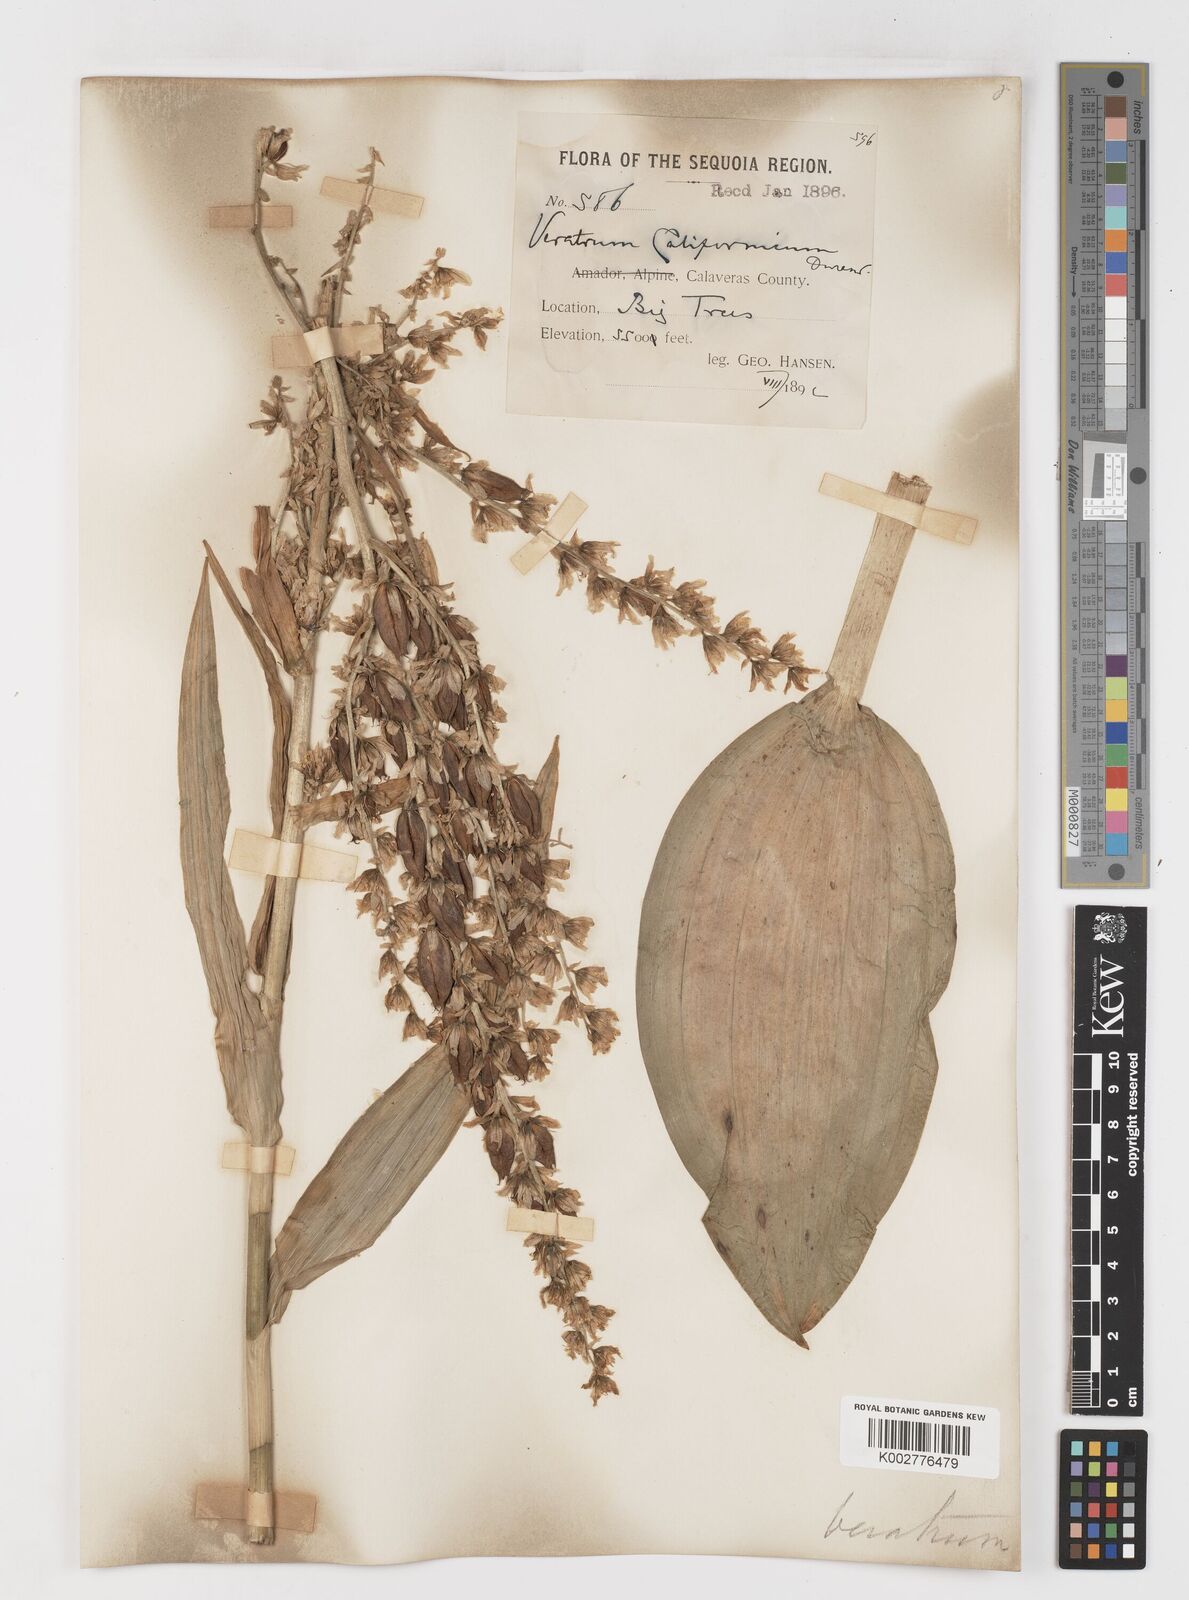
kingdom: Plantae
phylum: Tracheophyta
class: Liliopsida
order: Liliales
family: Melanthiaceae
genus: Veratrum
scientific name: Veratrum californicum
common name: California veratrum
